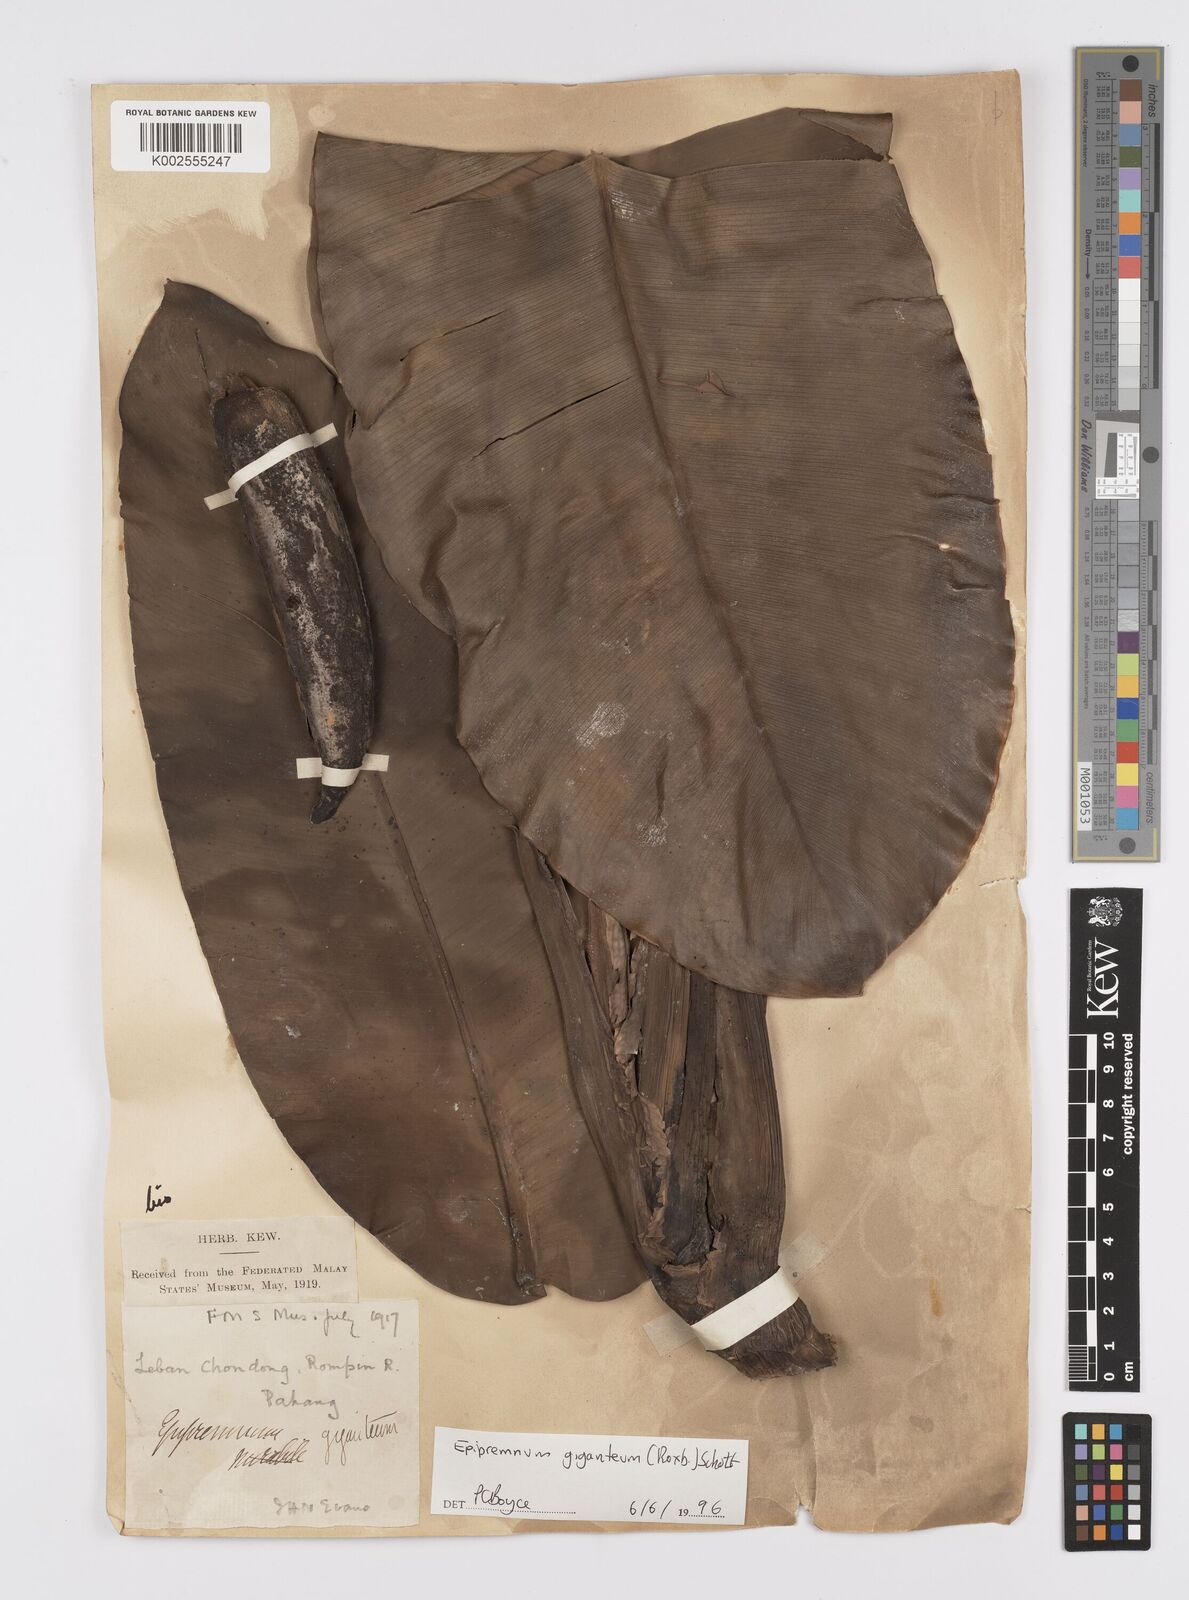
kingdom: Plantae
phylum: Tracheophyta
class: Liliopsida
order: Alismatales
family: Araceae
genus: Epipremnum
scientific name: Epipremnum giganteum
